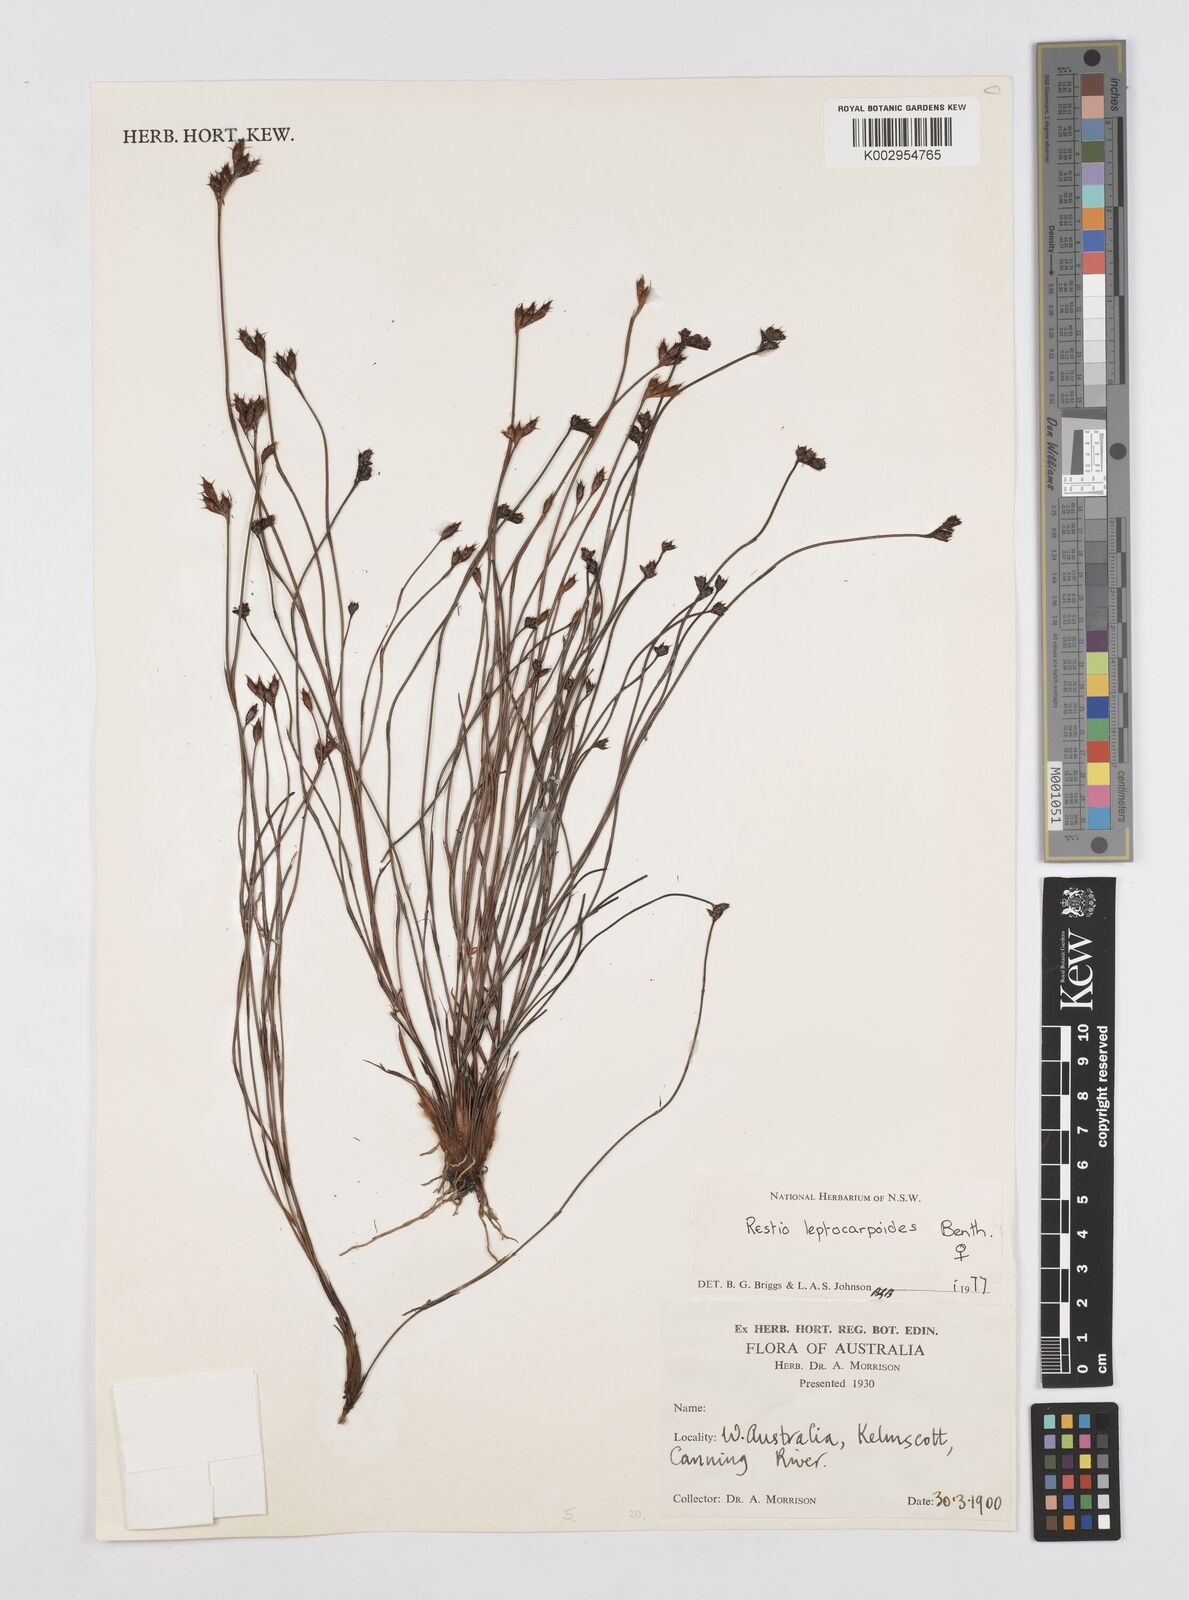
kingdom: Plantae
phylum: Tracheophyta
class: Liliopsida
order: Poales
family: Restionaceae
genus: Cytogonidium
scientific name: Cytogonidium leptocarpoides
